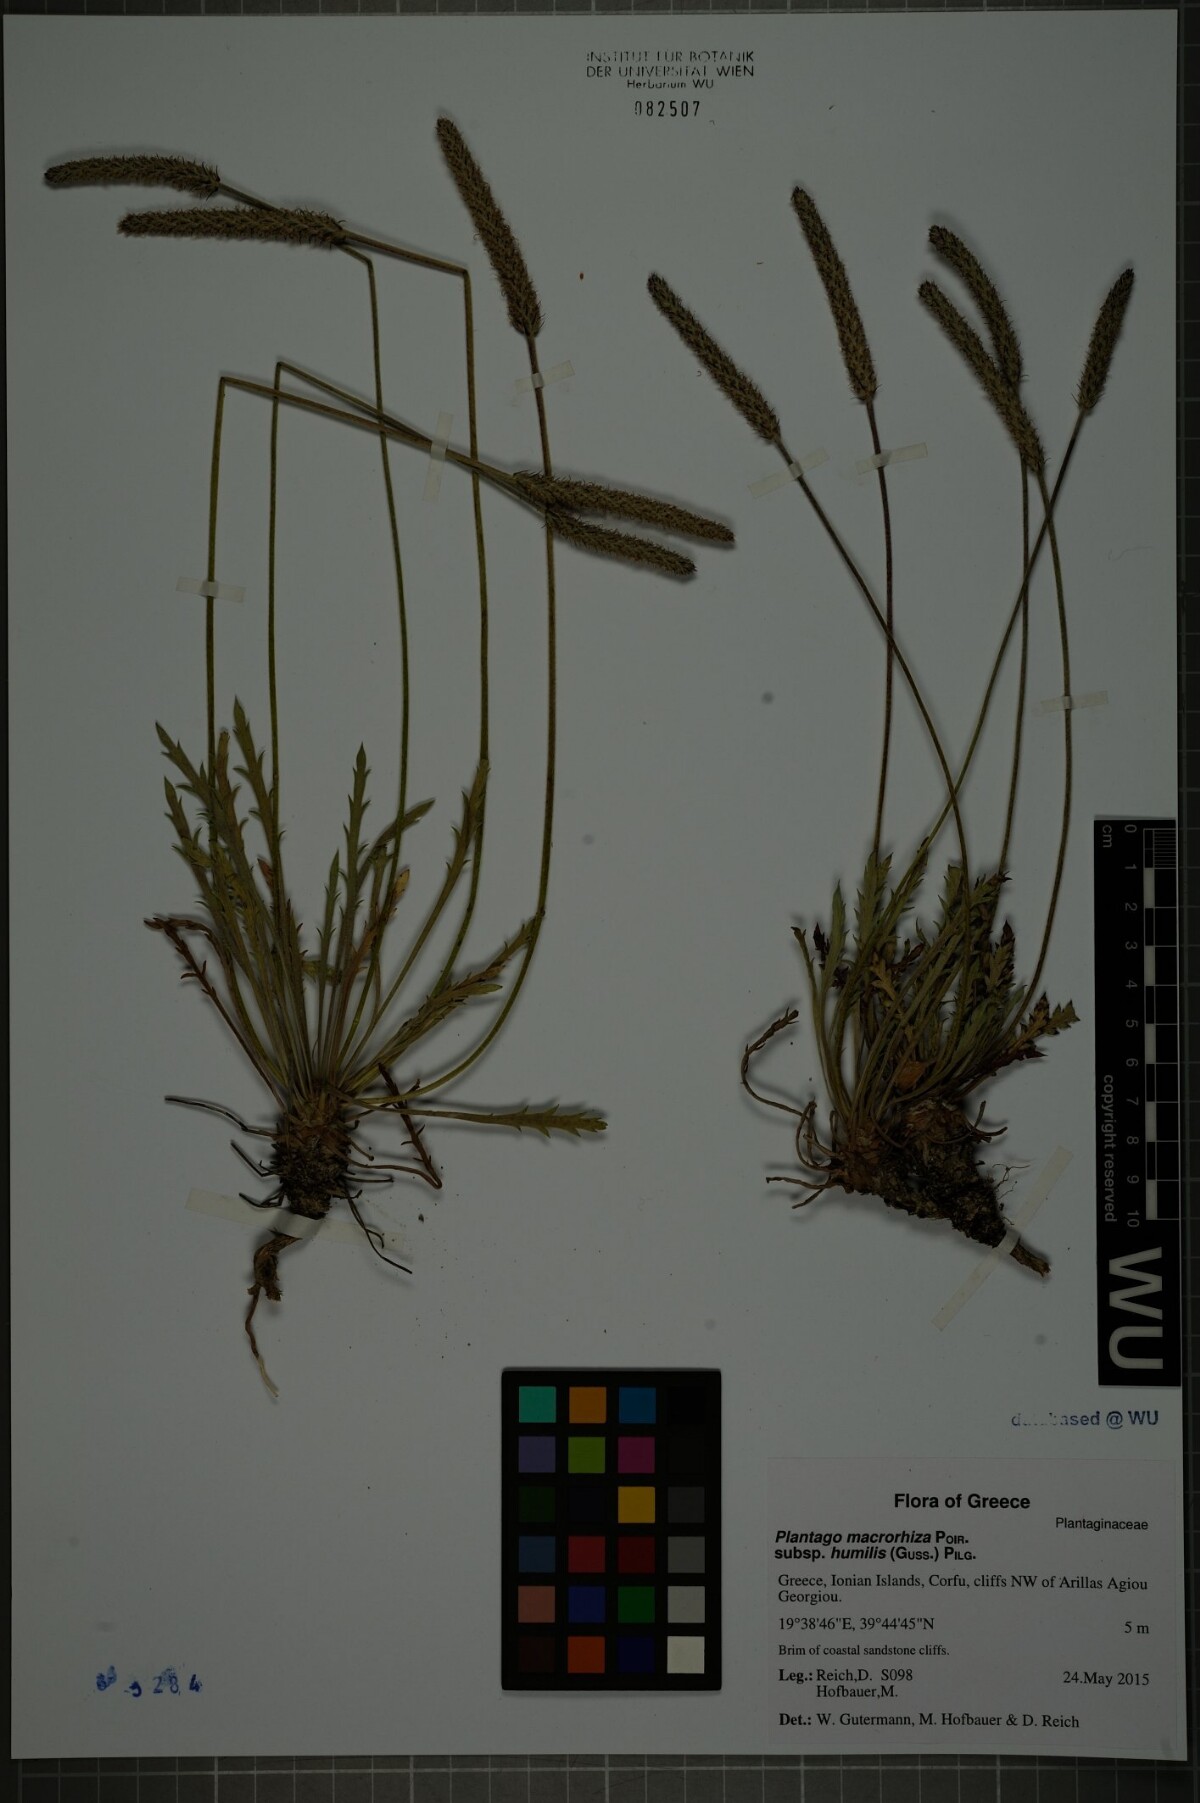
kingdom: Plantae
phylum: Tracheophyta
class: Magnoliopsida
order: Lamiales
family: Plantaginaceae
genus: Plantago
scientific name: Plantago macrorhiza
